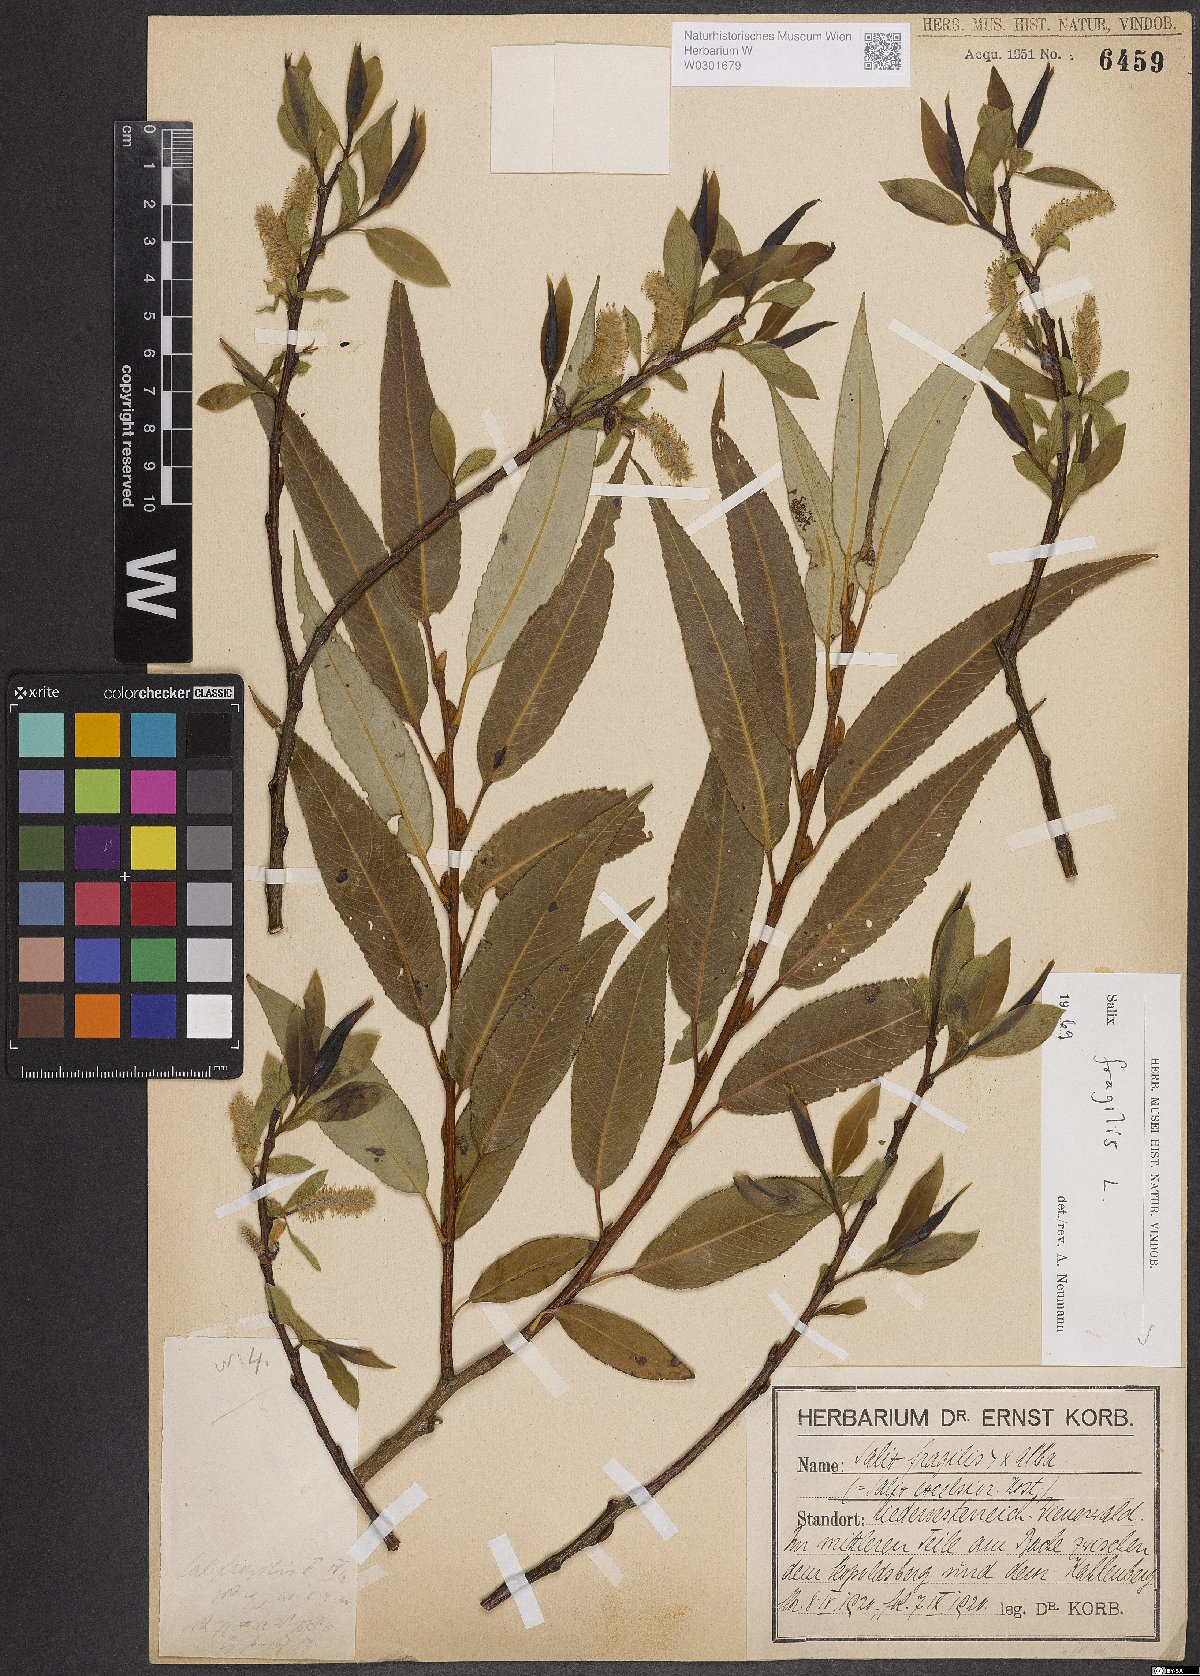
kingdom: Plantae
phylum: Tracheophyta
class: Magnoliopsida
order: Malpighiales
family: Salicaceae
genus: Salix
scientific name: Salix fragilis
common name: Crack willow
